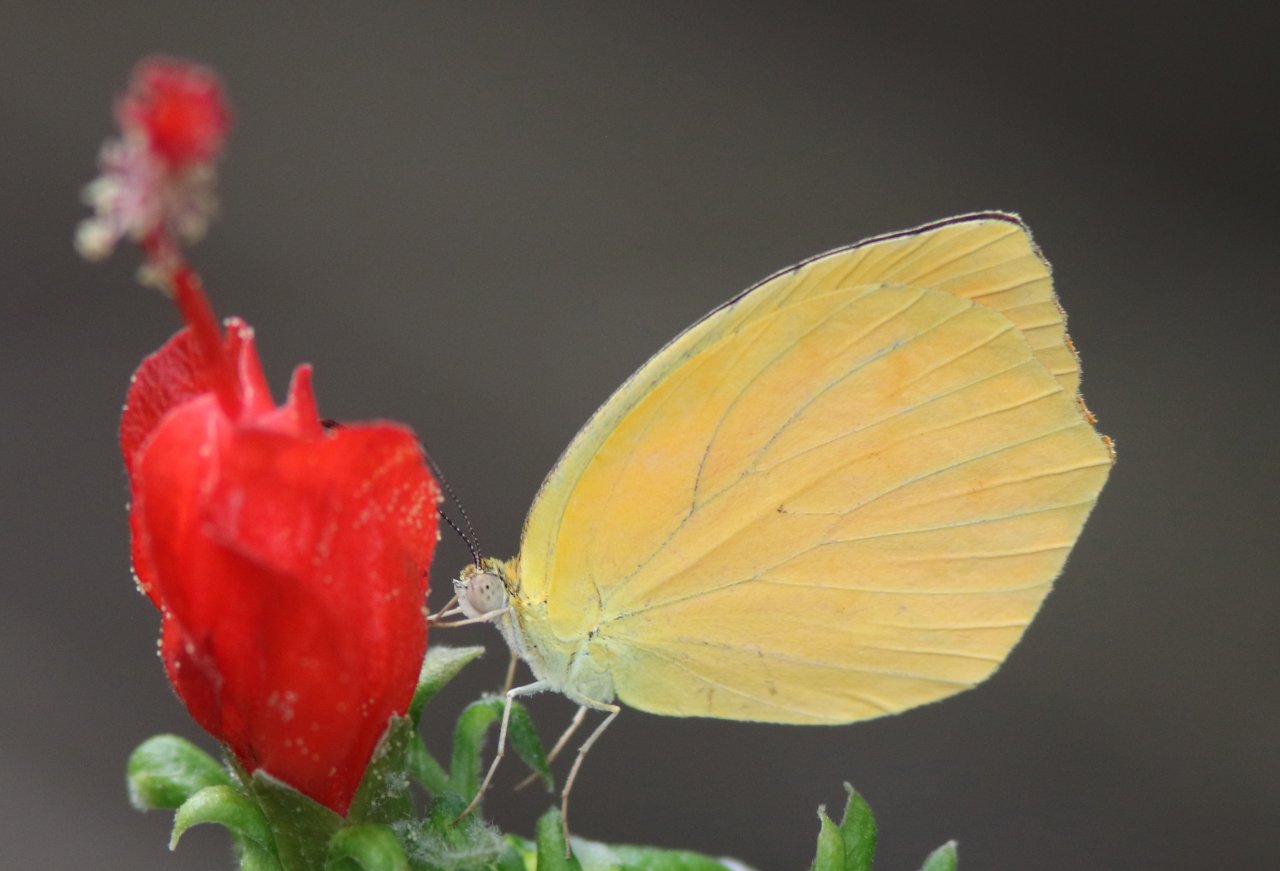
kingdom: Animalia
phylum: Arthropoda
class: Insecta
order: Lepidoptera
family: Pieridae
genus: Pyrisitia
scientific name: Pyrisitia proterpia
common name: Tailed Orange
